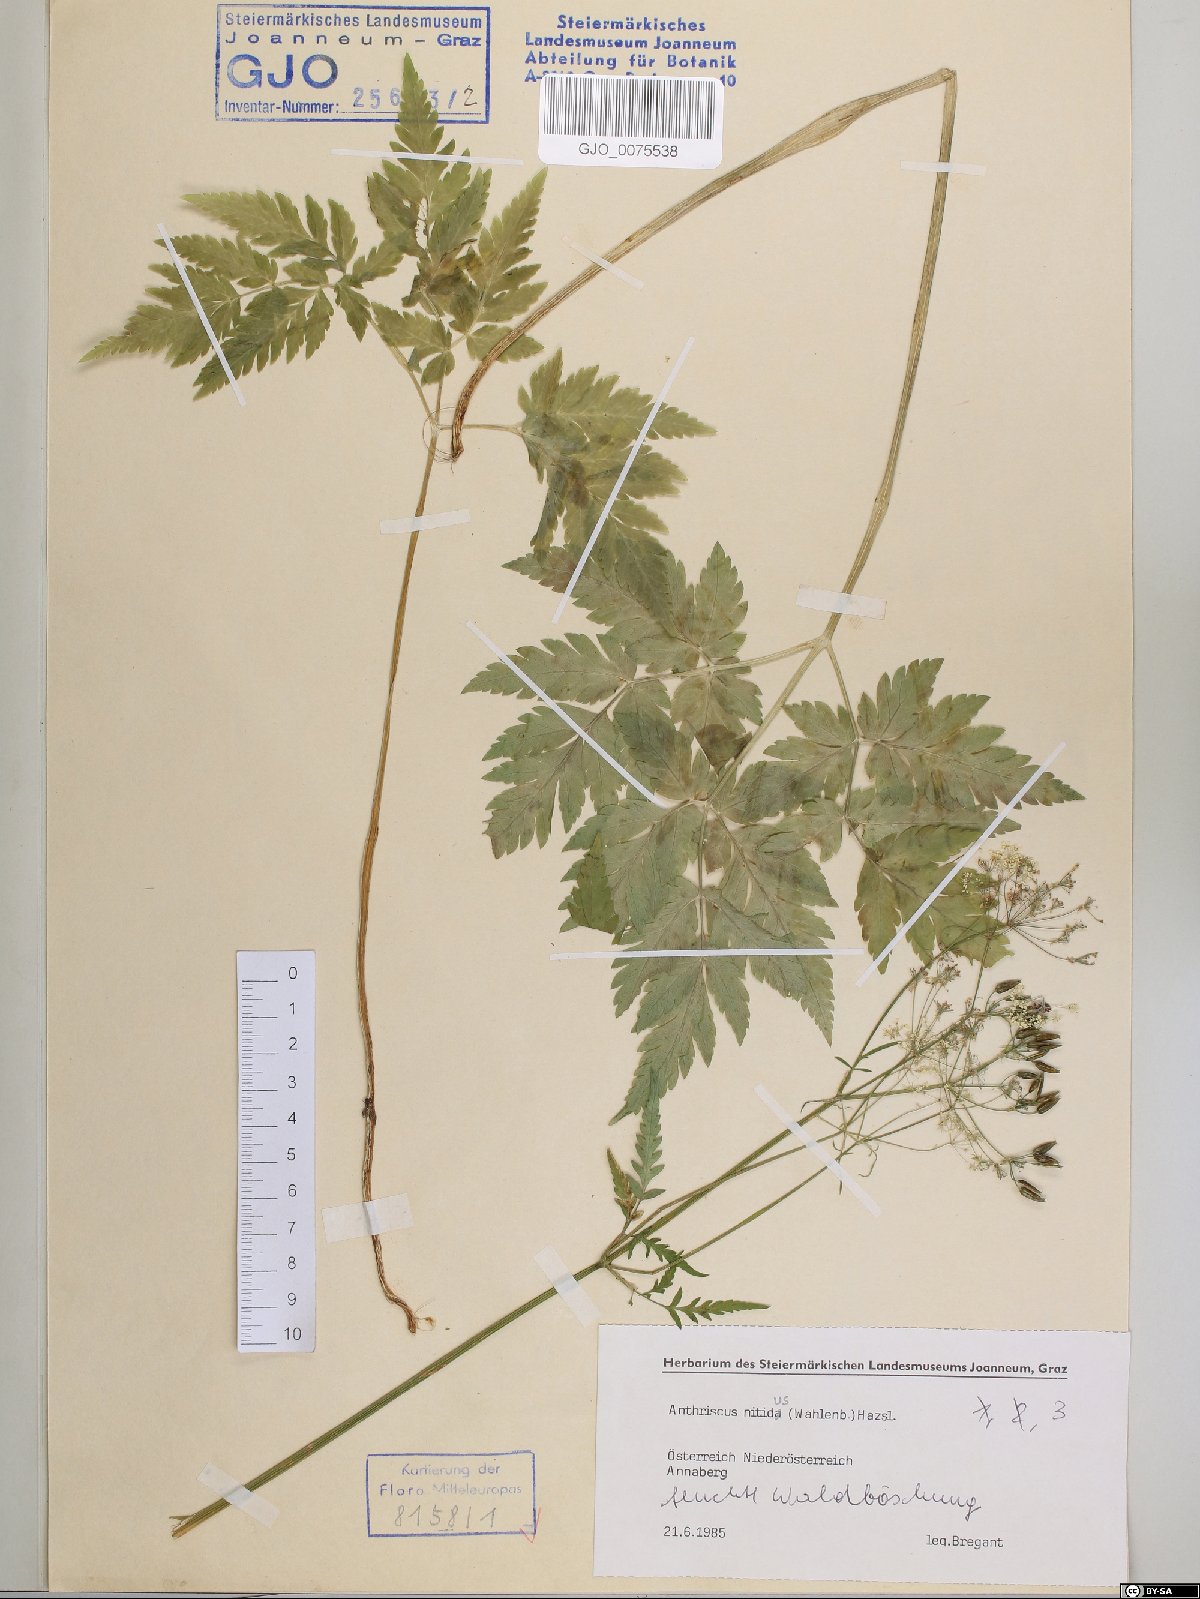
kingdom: Plantae
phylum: Tracheophyta
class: Magnoliopsida
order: Apiales
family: Apiaceae
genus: Anthriscus
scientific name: Anthriscus nitida
